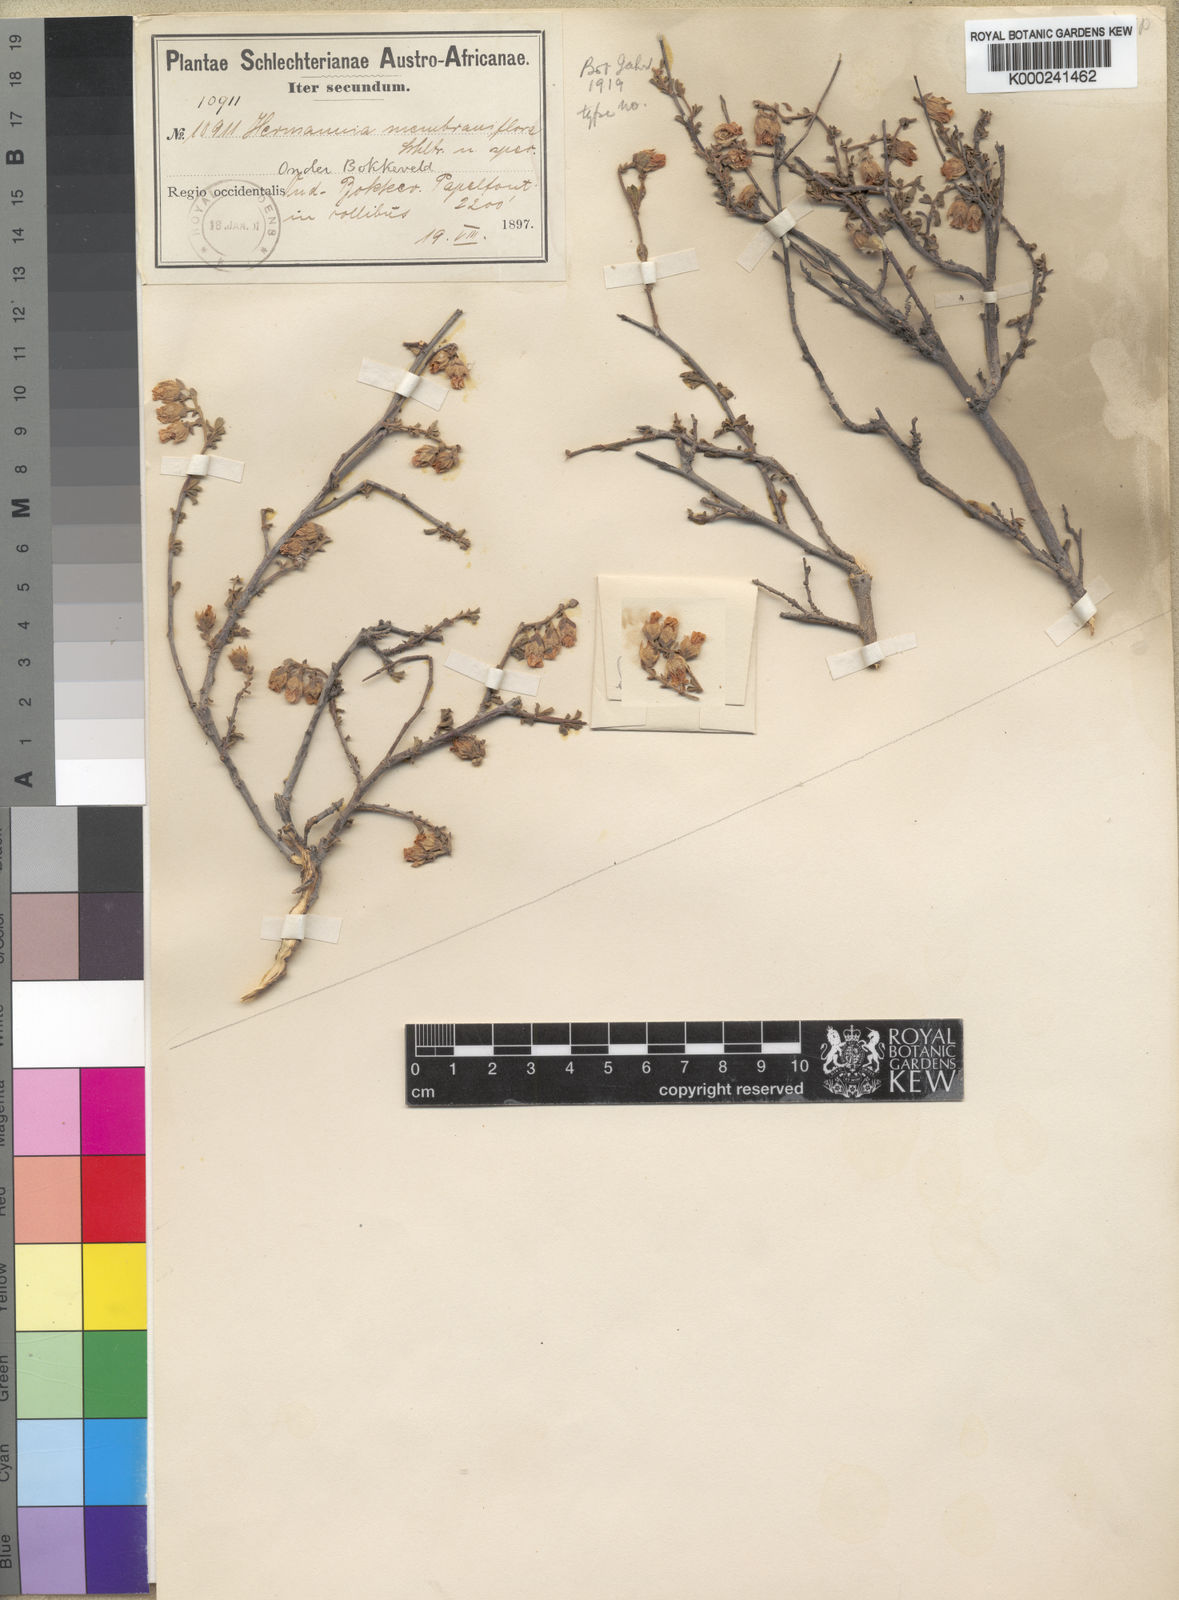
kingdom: Plantae
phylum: Tracheophyta
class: Magnoliopsida
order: Malvales
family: Malvaceae
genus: Hermannia
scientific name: Hermannia cuneifolia
